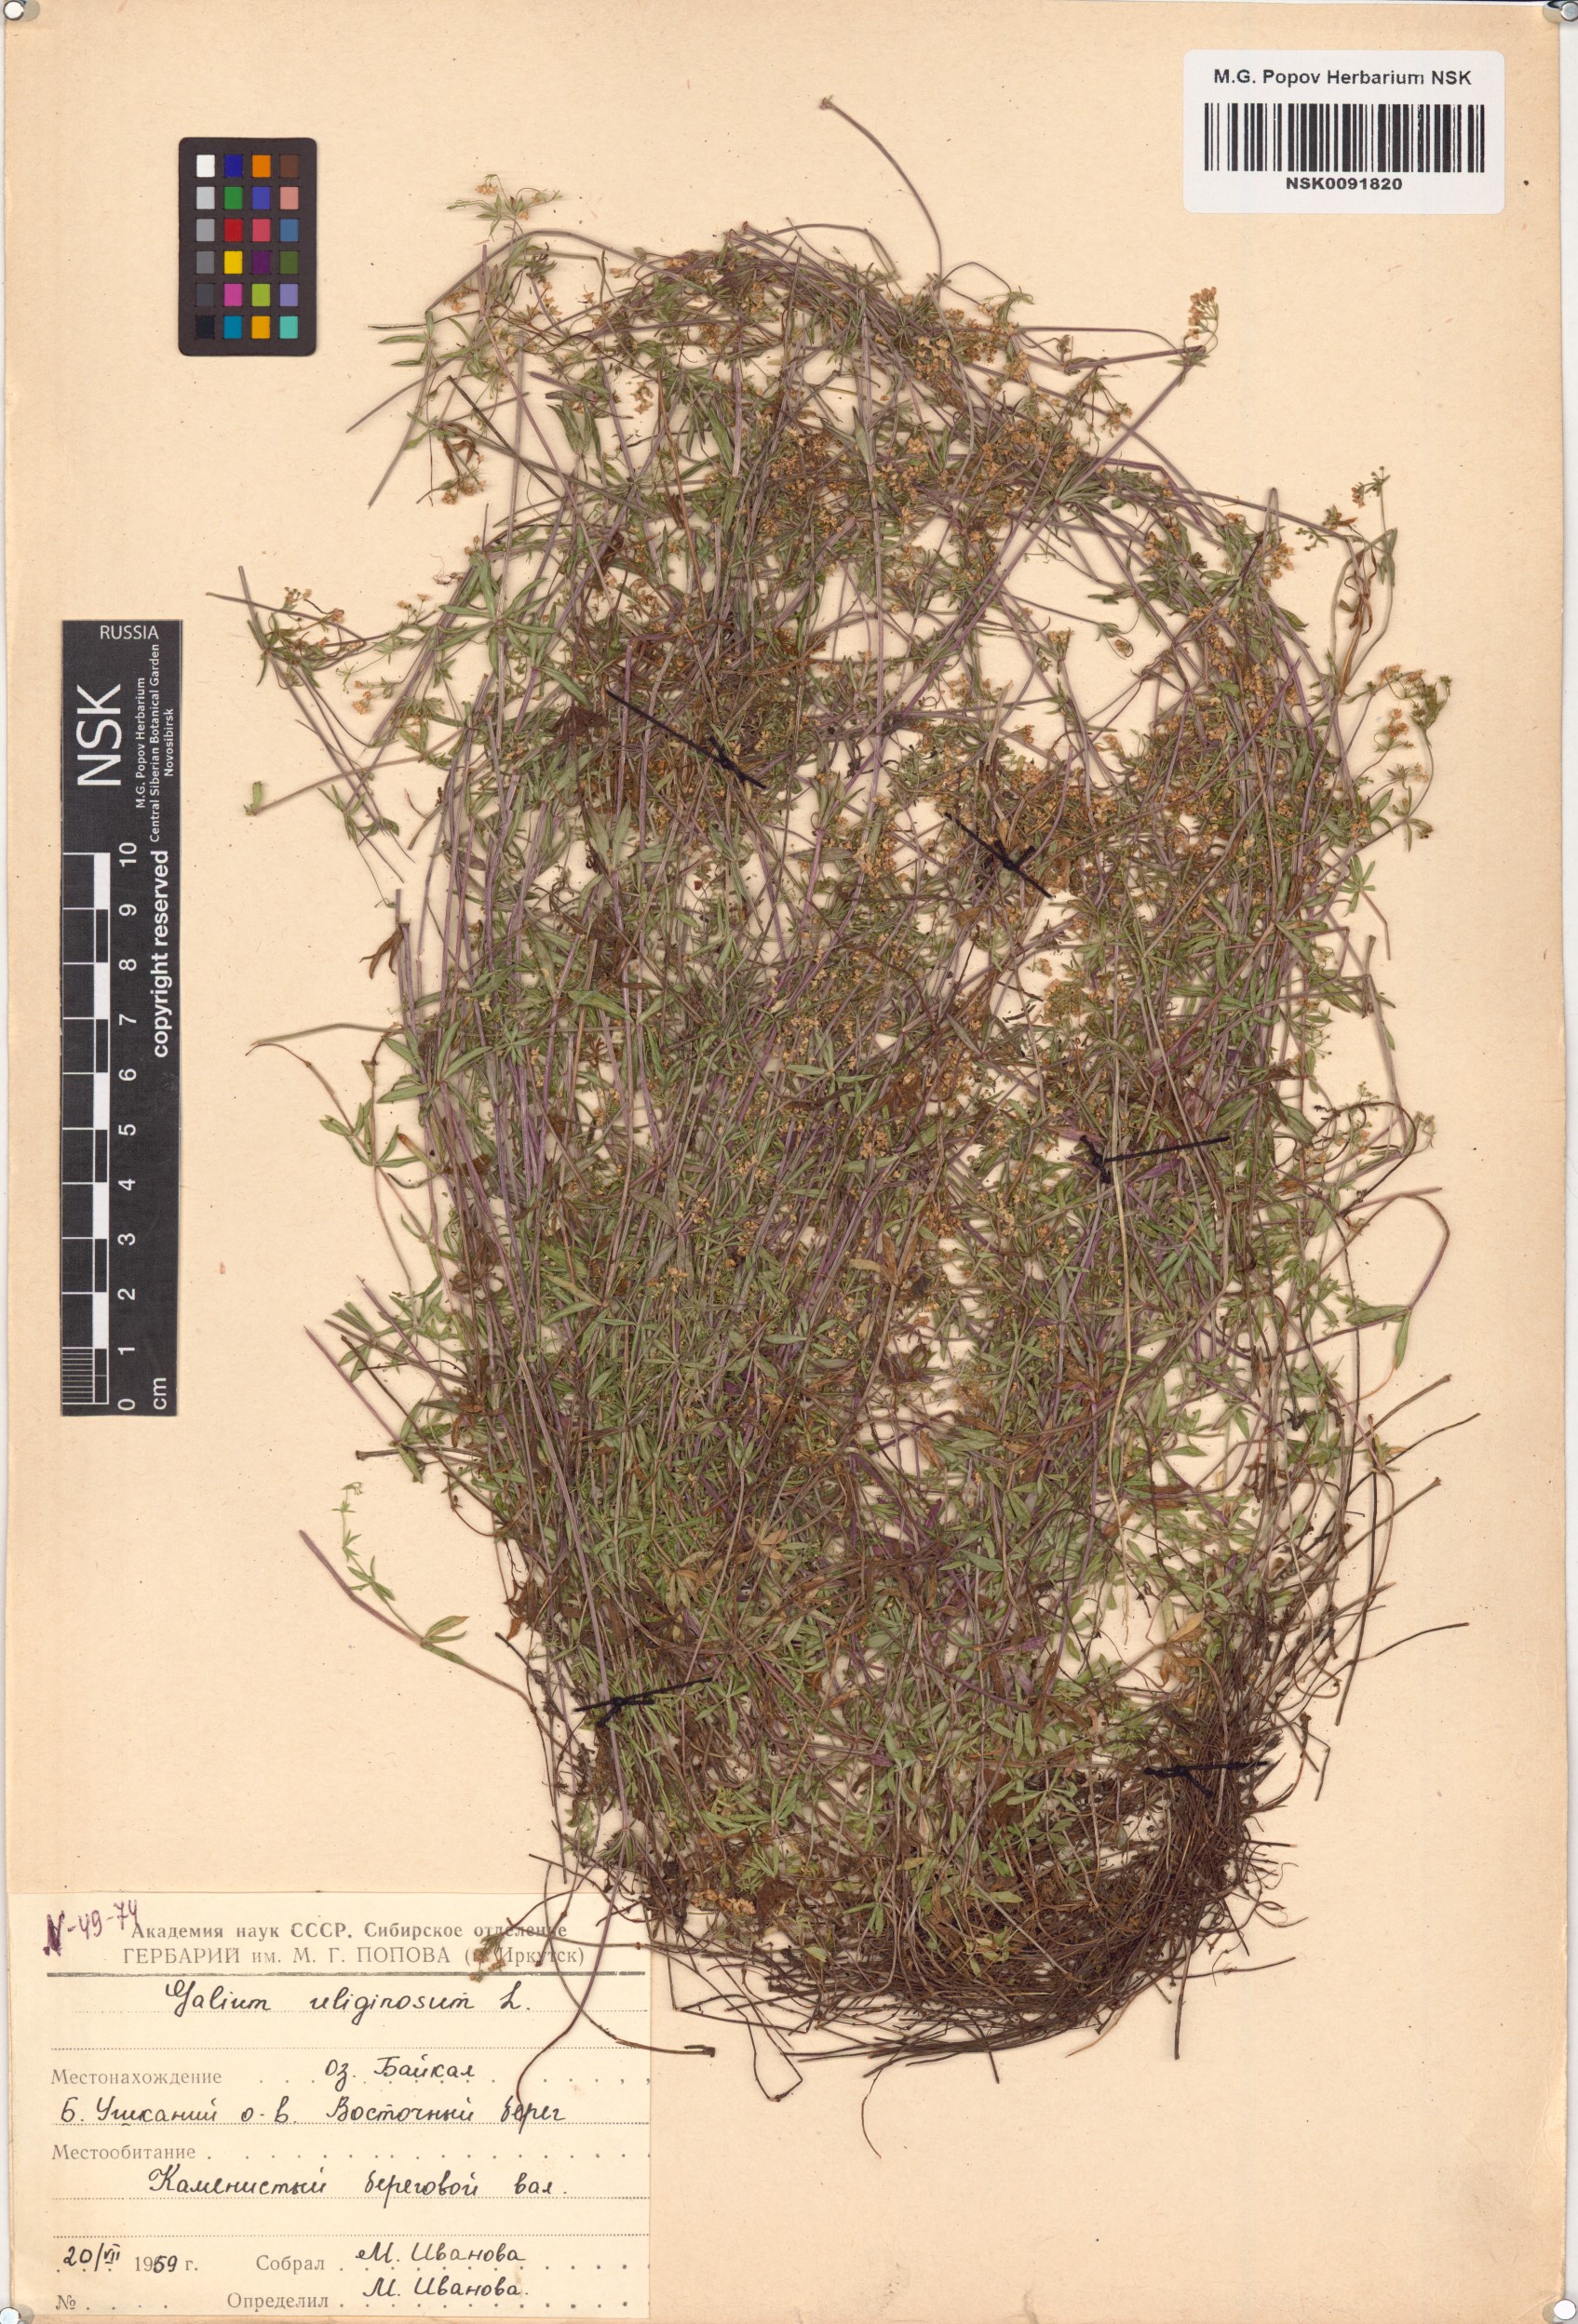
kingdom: Plantae
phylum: Tracheophyta
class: Magnoliopsida
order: Gentianales
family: Rubiaceae
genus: Galium
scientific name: Galium uliginosum
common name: Fen bedstraw
